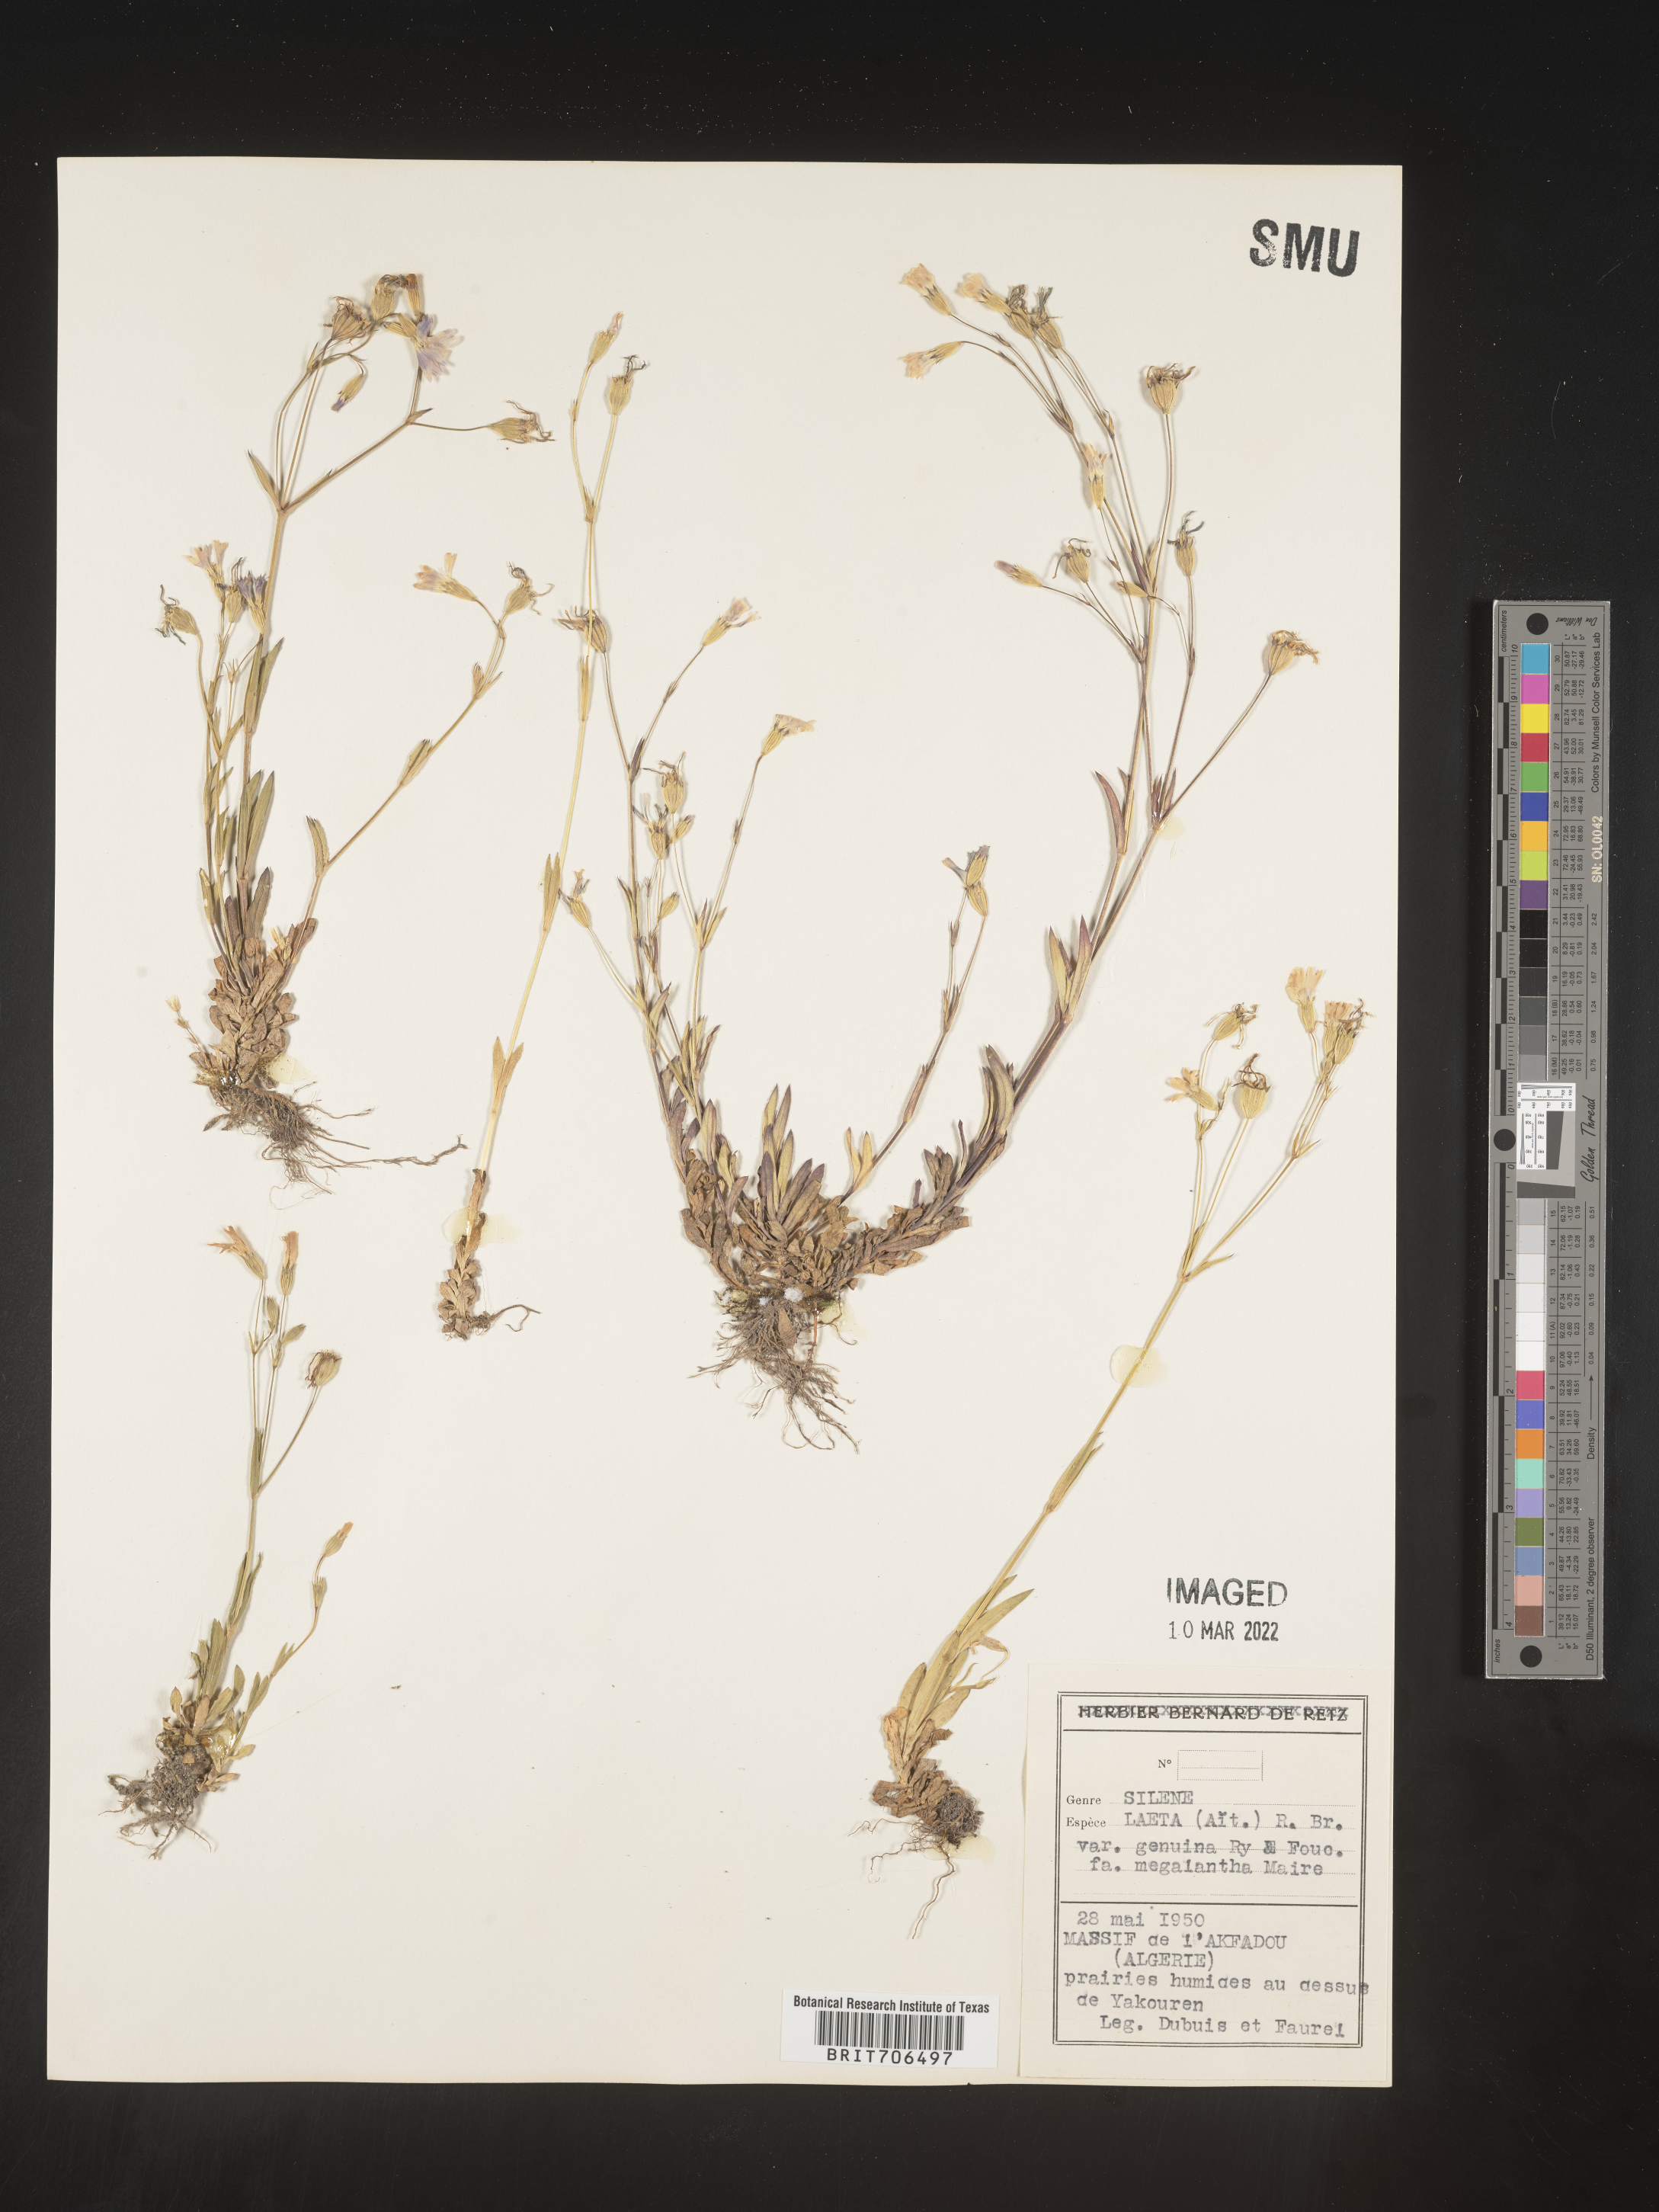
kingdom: Plantae
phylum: Tracheophyta
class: Magnoliopsida
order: Caryophyllales
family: Caryophyllaceae
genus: Silene
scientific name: Silene
